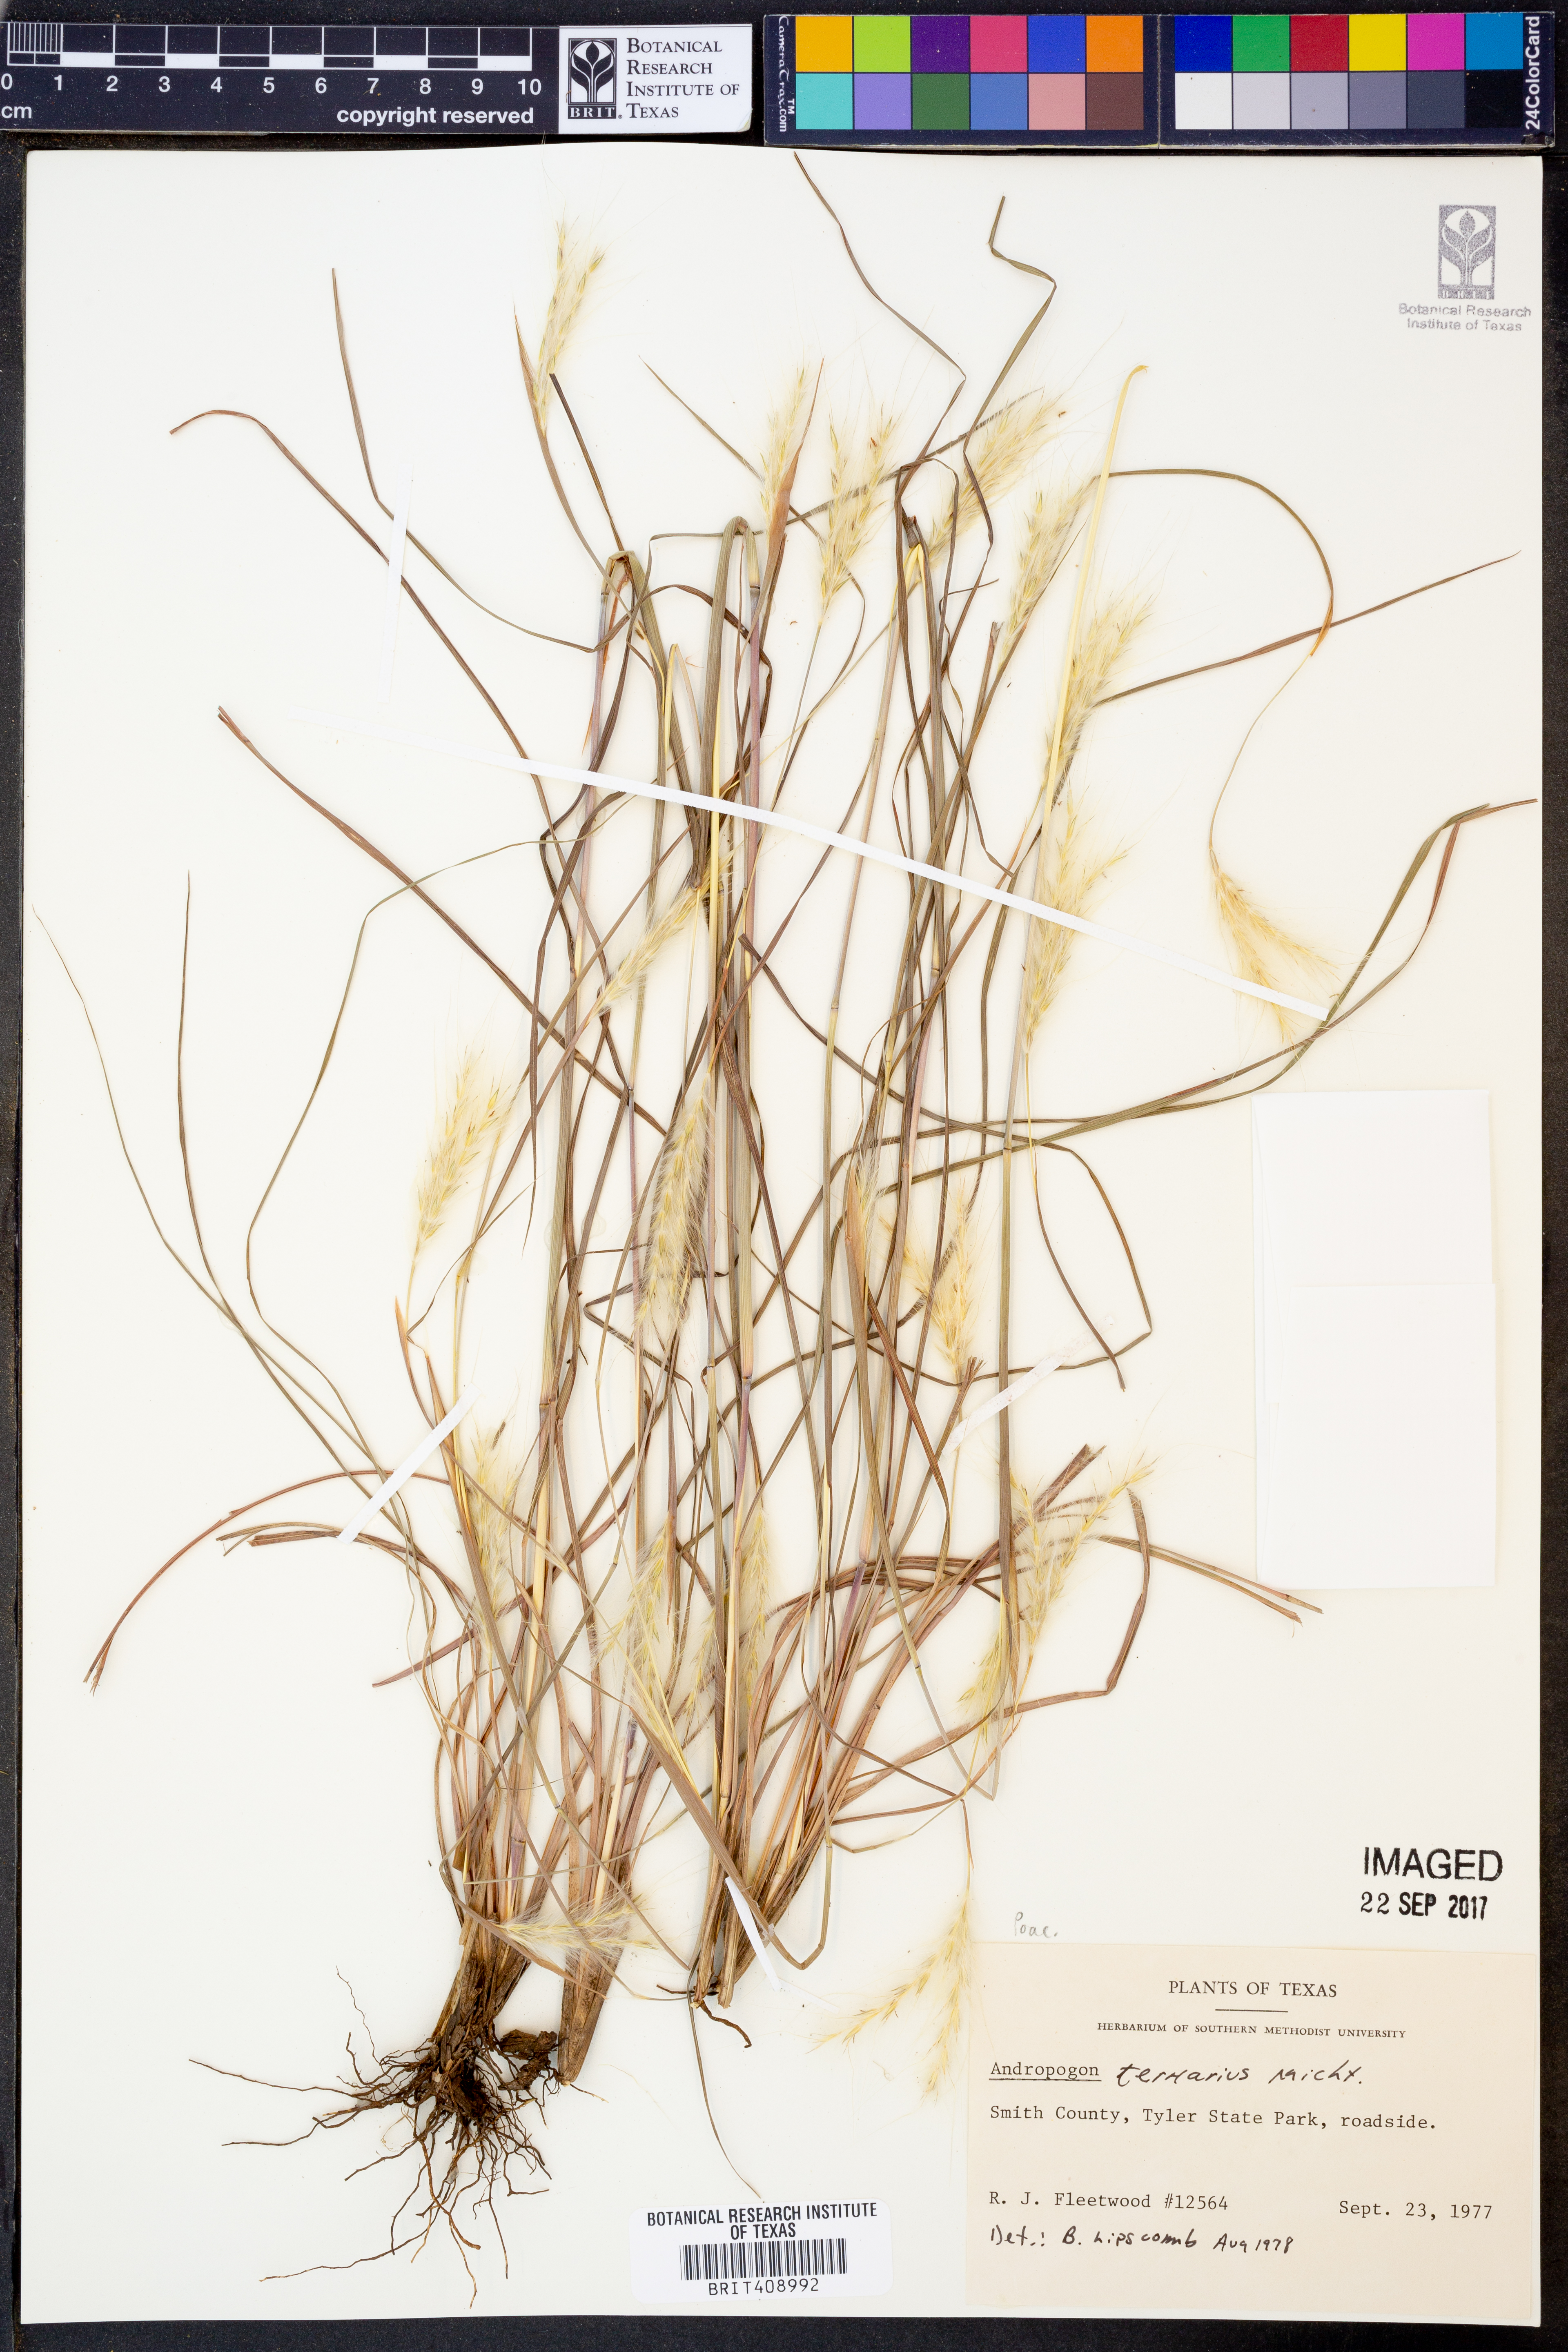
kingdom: Plantae
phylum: Tracheophyta
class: Liliopsida
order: Poales
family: Poaceae
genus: Andropogon
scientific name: Andropogon ternarius
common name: Split bluestem
